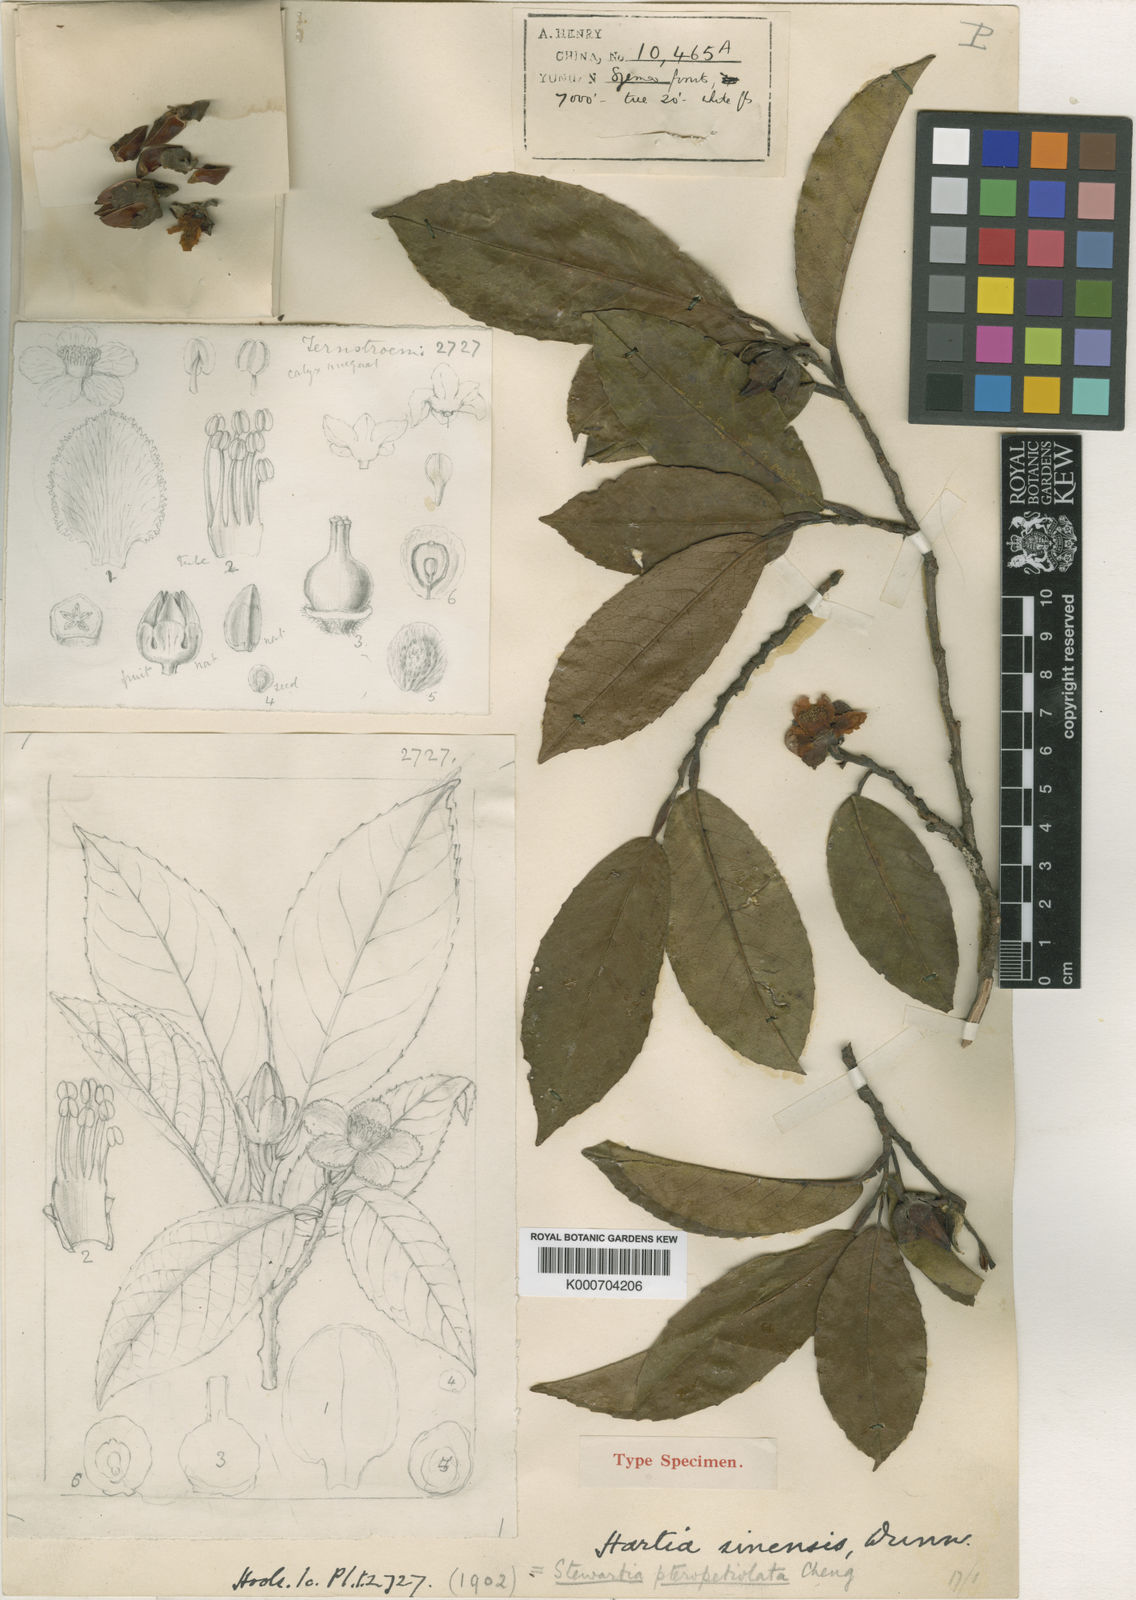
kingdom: Plantae
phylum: Tracheophyta
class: Magnoliopsida
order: Ericales
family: Theaceae
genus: Stewartia
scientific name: Stewartia villosa
